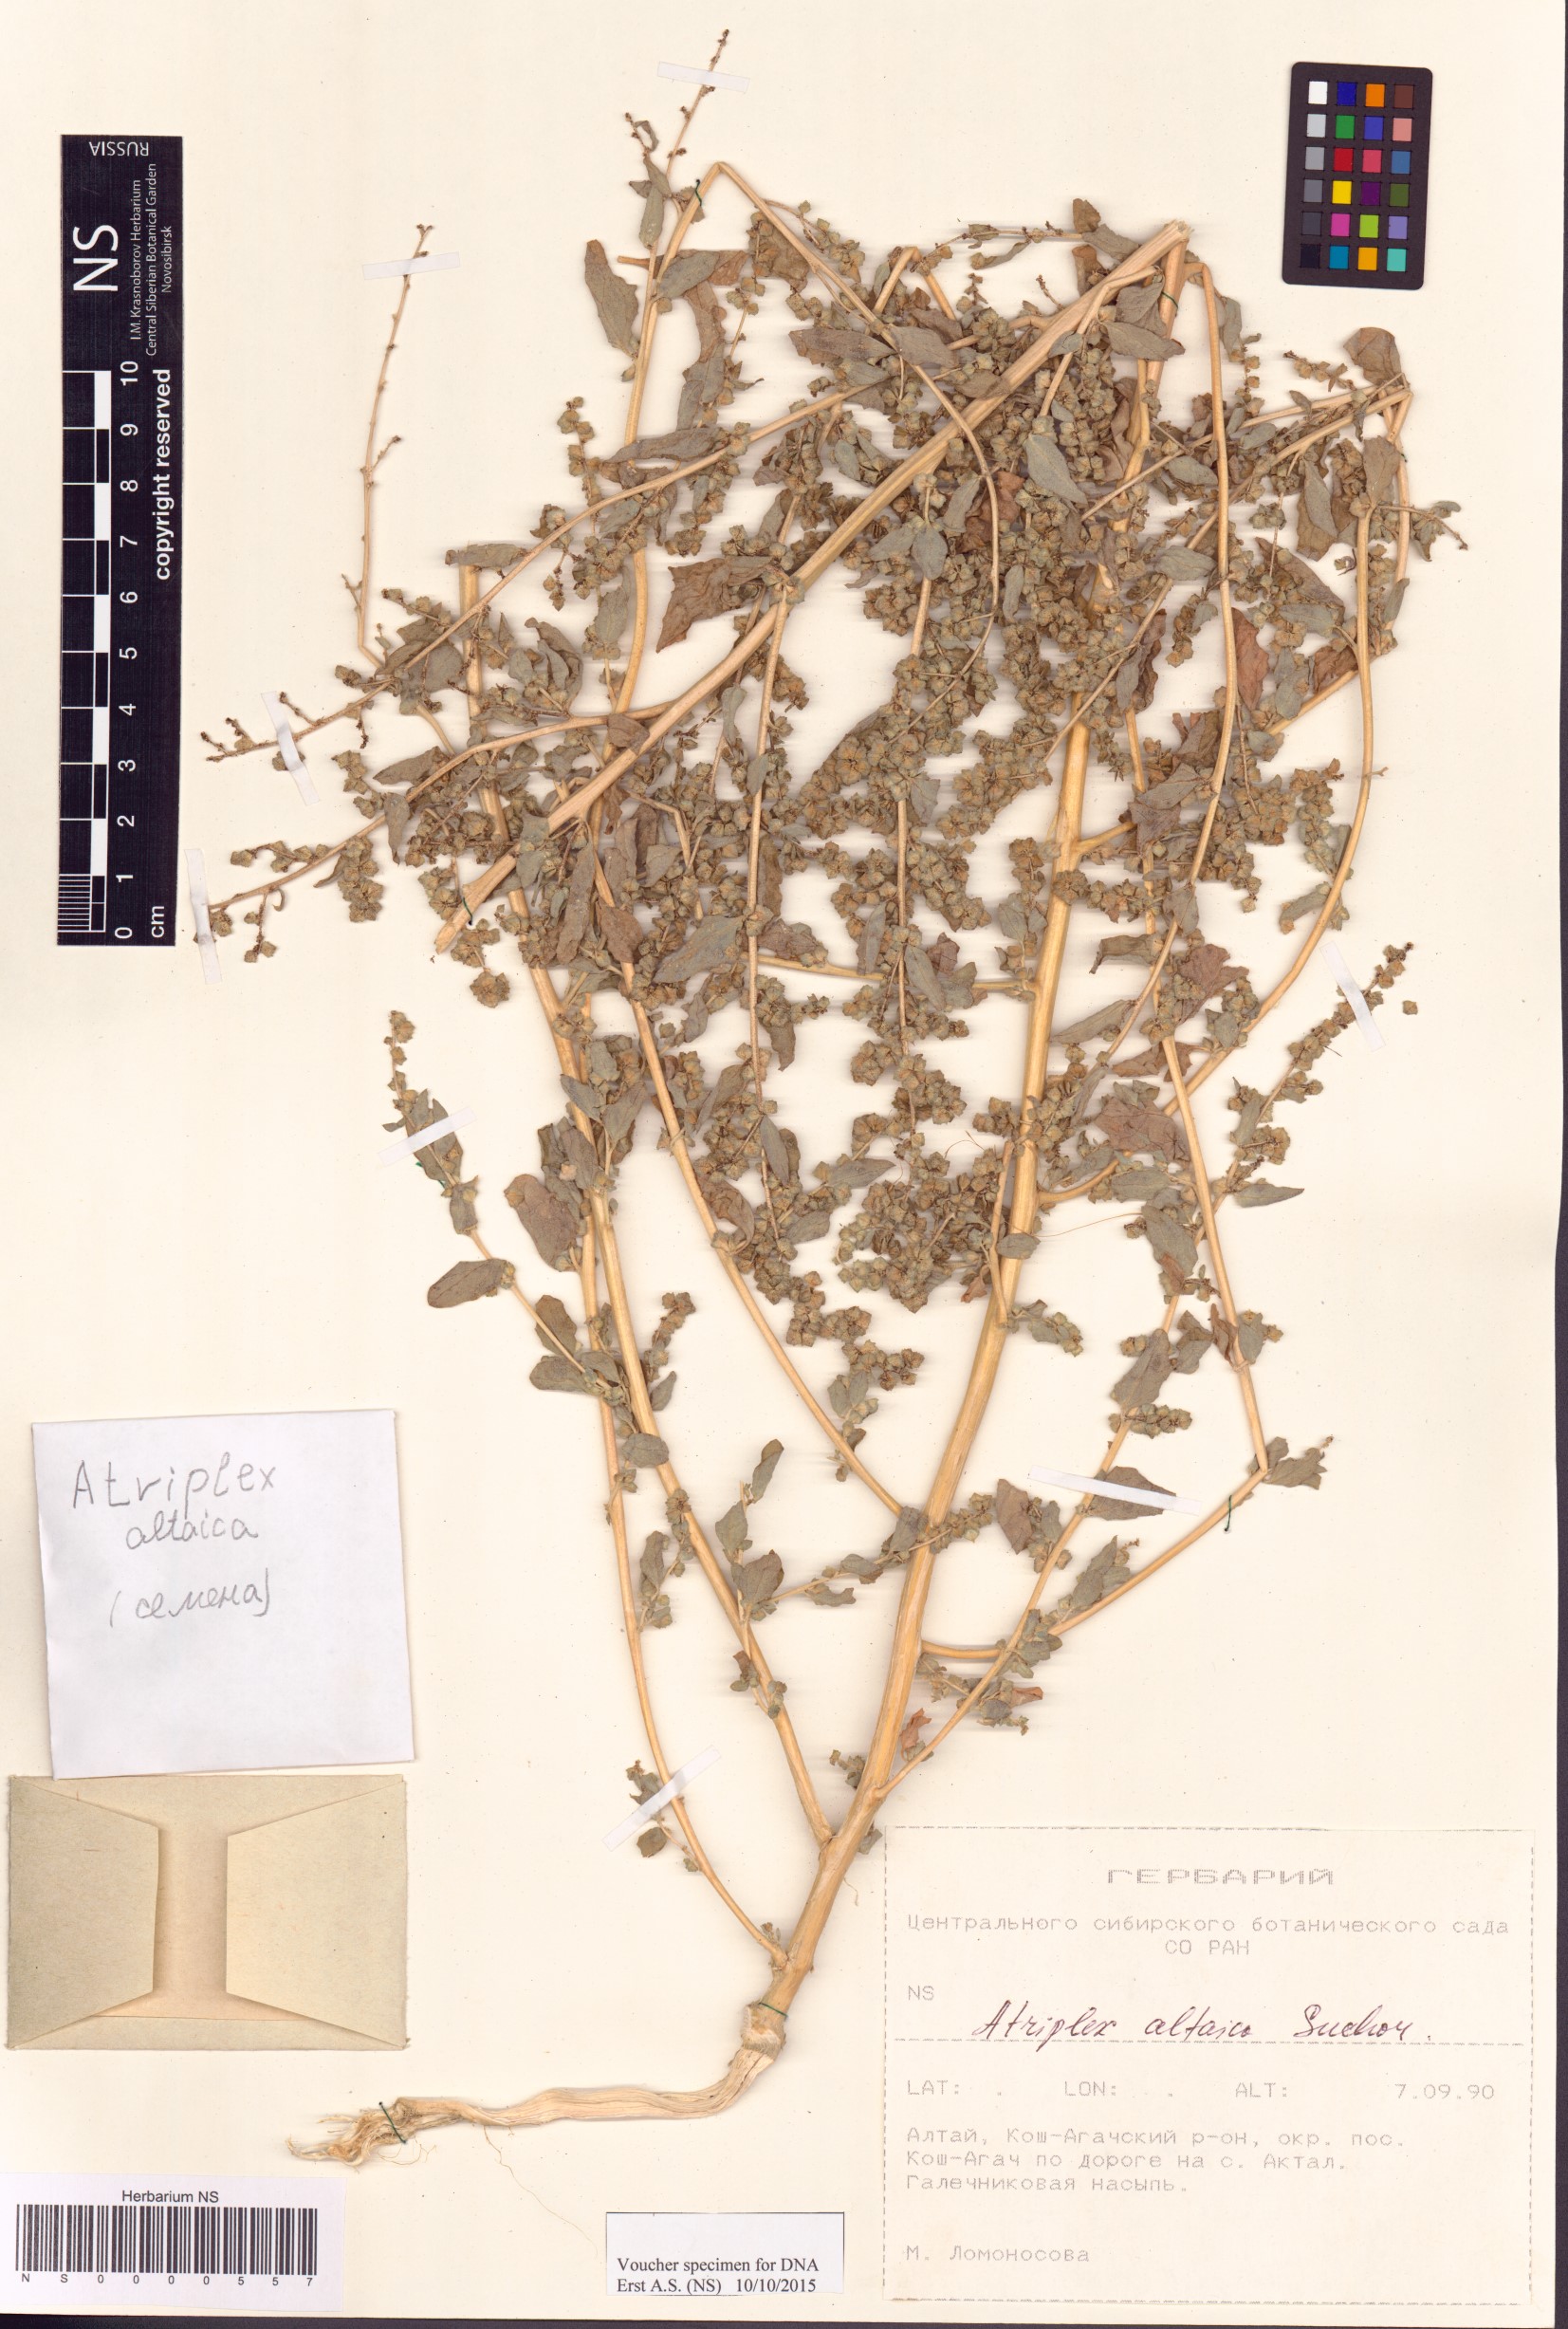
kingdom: Plantae
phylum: Tracheophyta
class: Magnoliopsida
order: Caryophyllales
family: Amaranthaceae
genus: Atriplex
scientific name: Atriplex altaica
